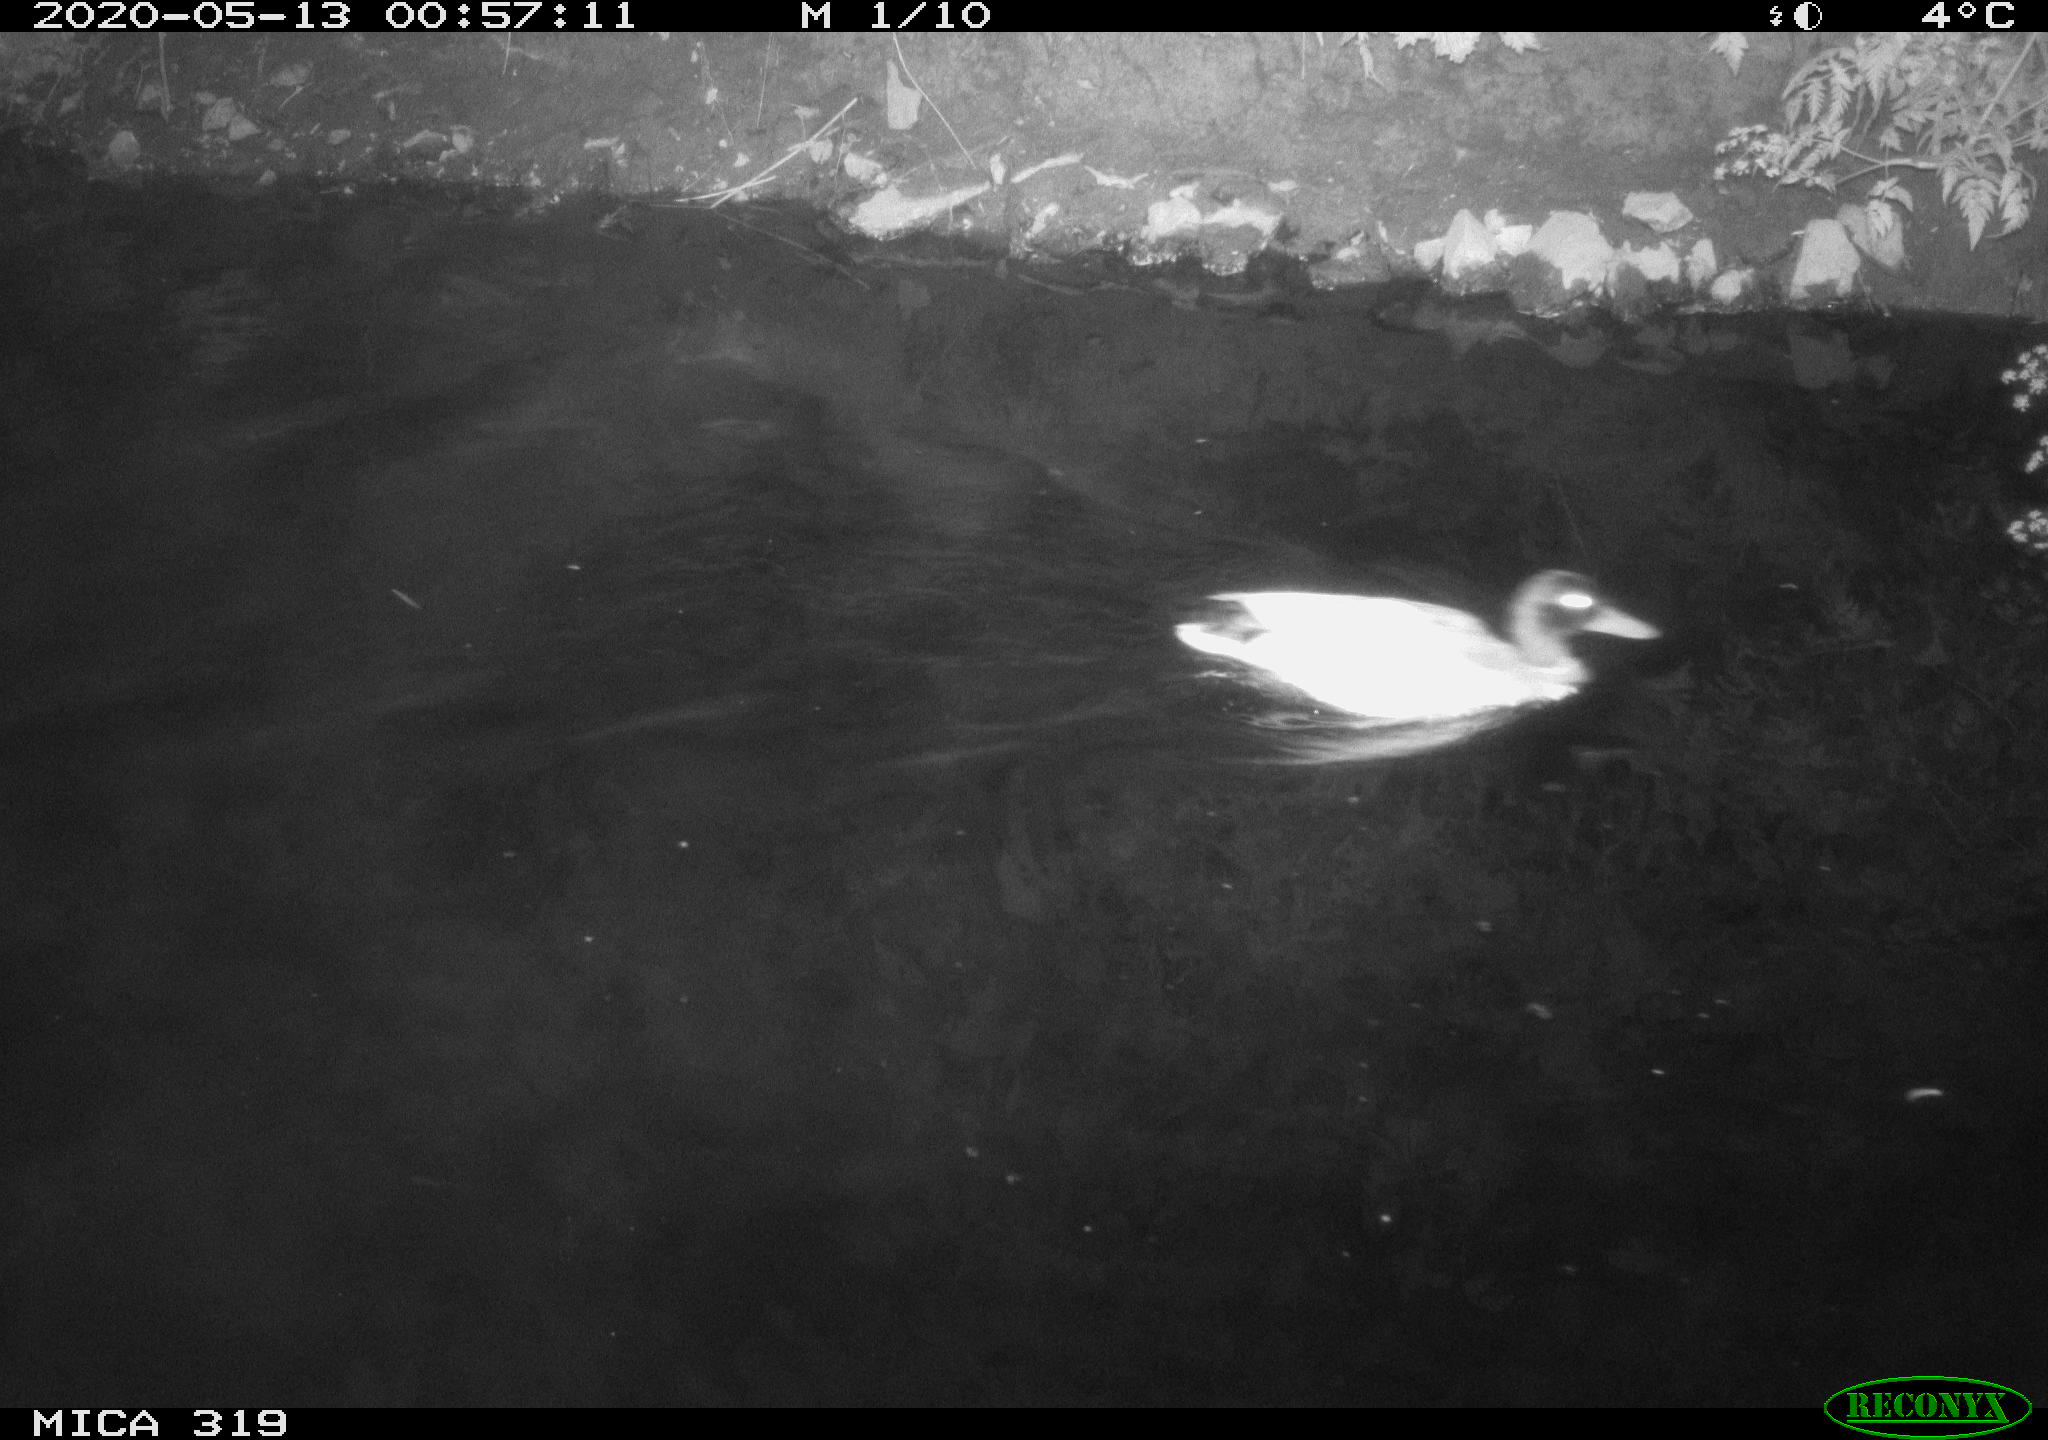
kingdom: Animalia
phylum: Chordata
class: Aves
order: Anseriformes
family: Anatidae
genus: Anas
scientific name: Anas platyrhynchos
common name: Mallard
